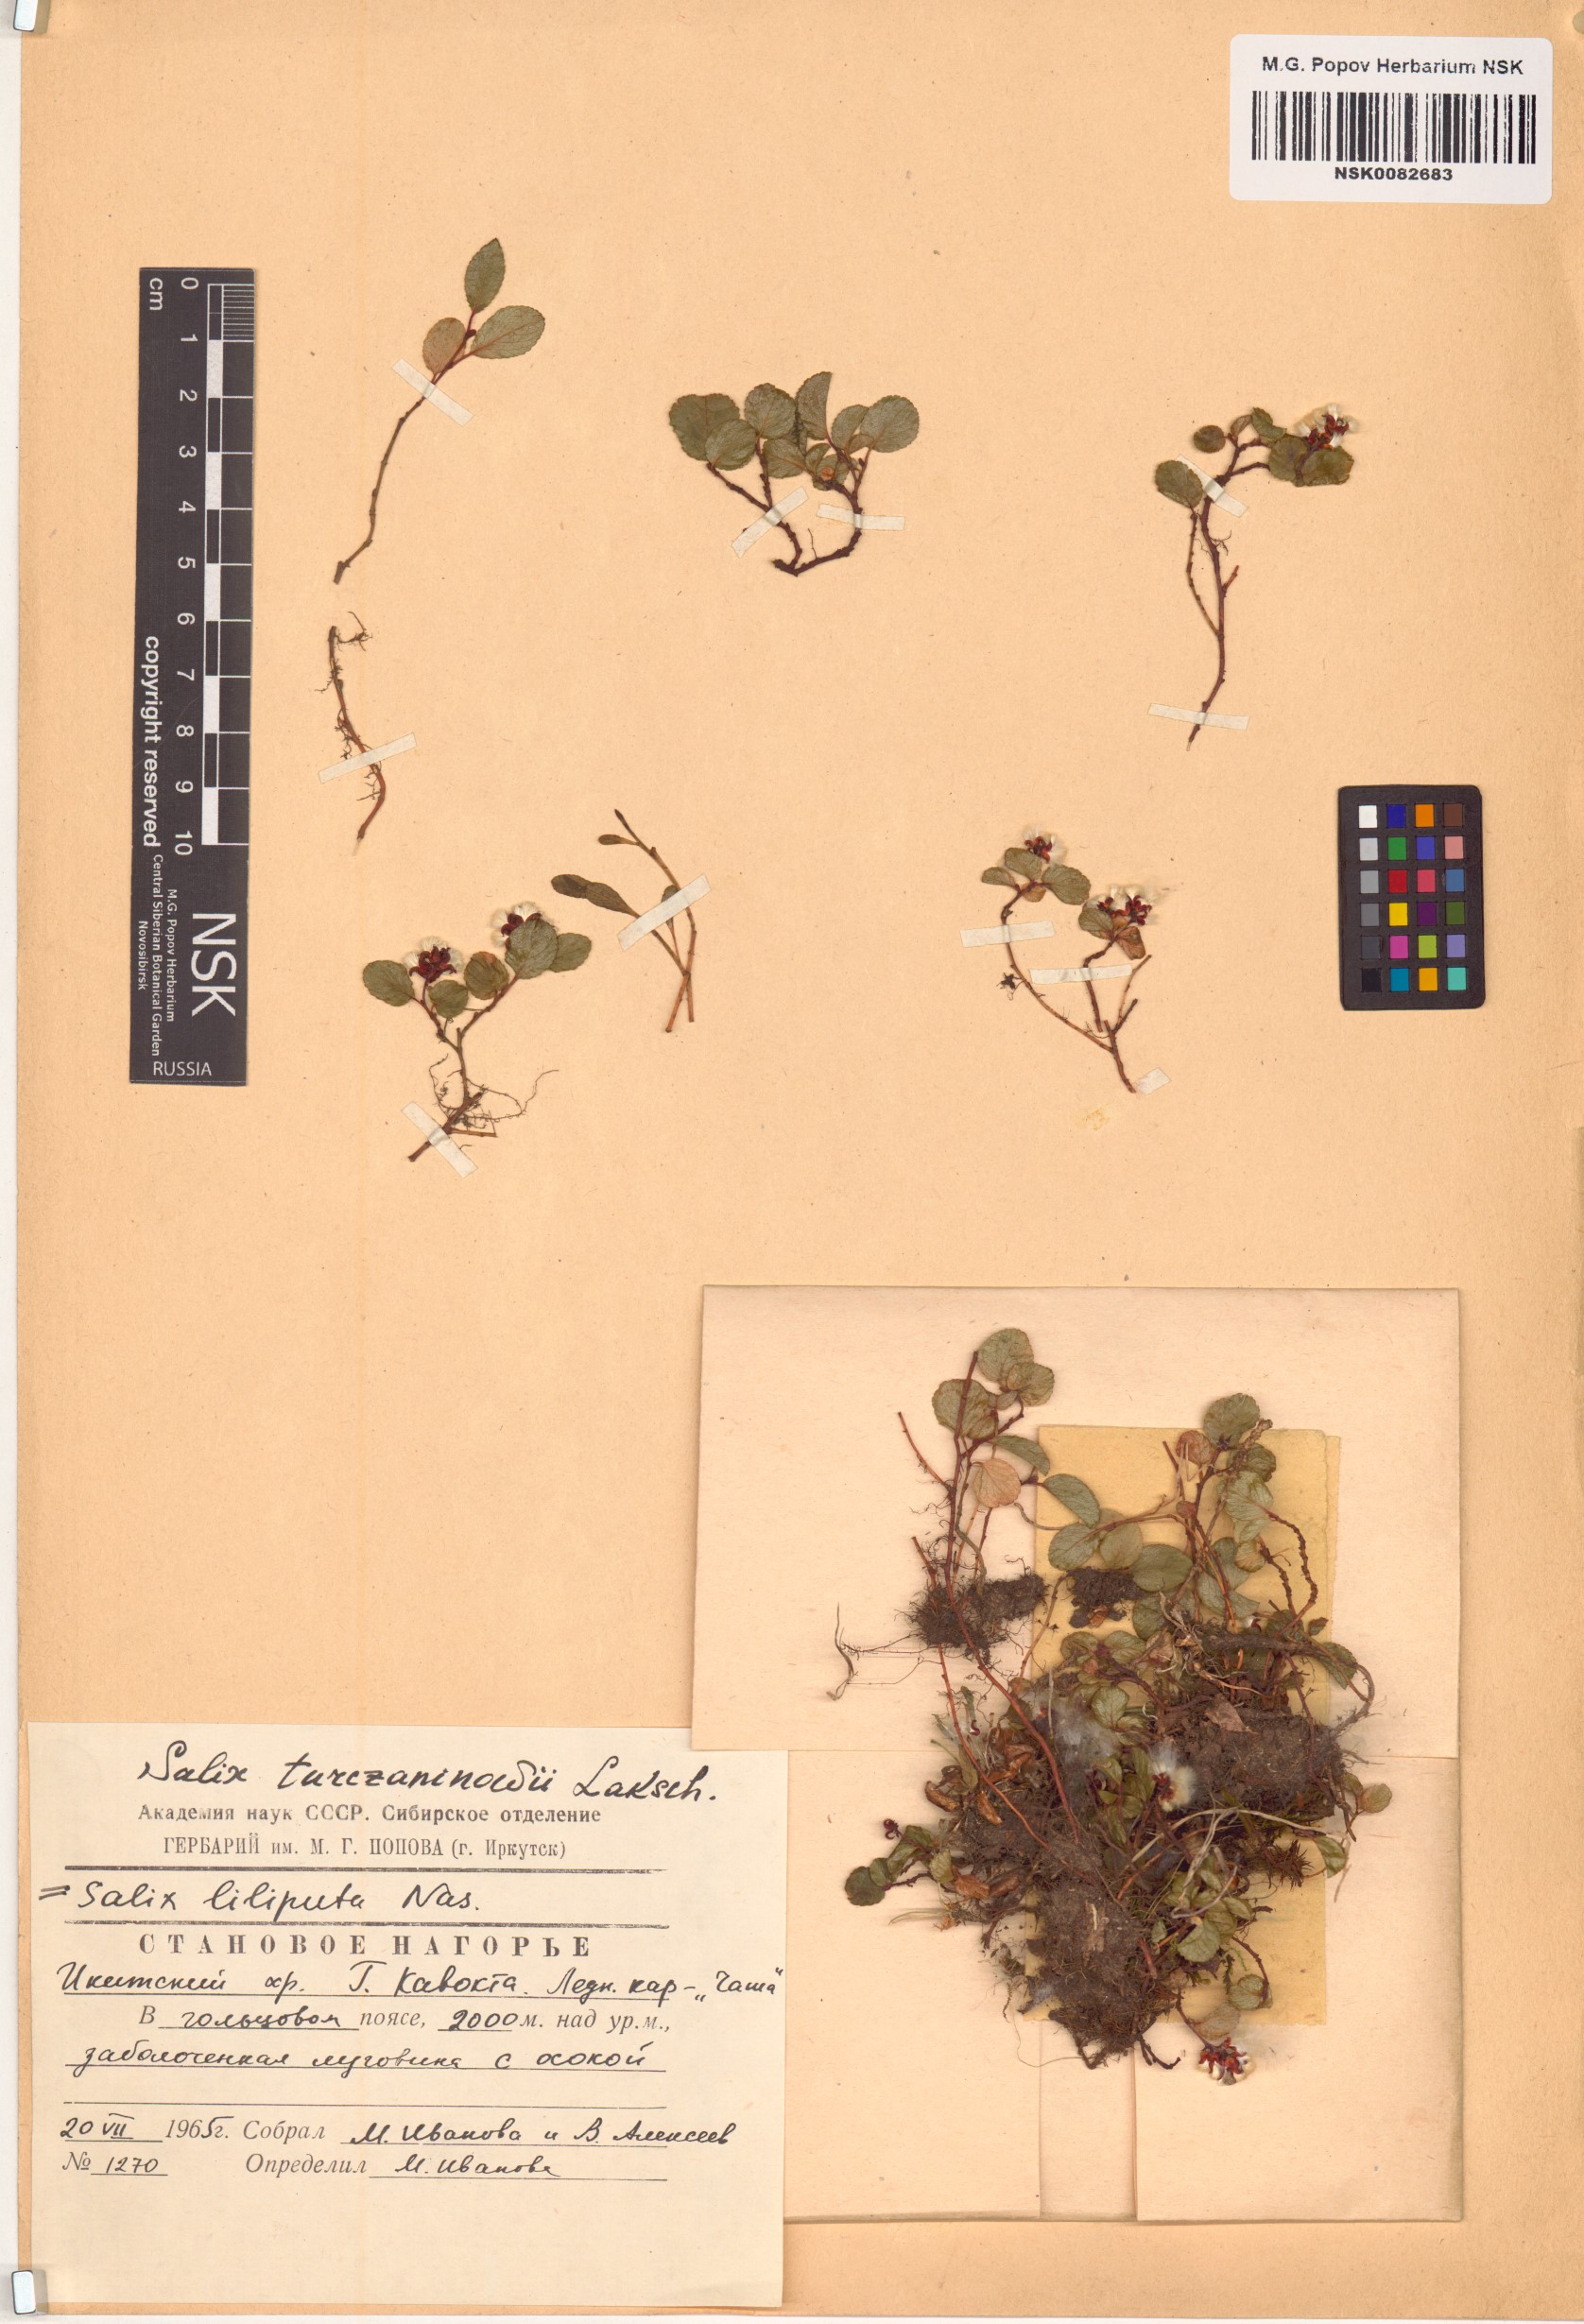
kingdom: Plantae
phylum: Tracheophyta
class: Magnoliopsida
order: Malpighiales
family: Salicaceae
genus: Salix
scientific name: Salix turczaninowii
